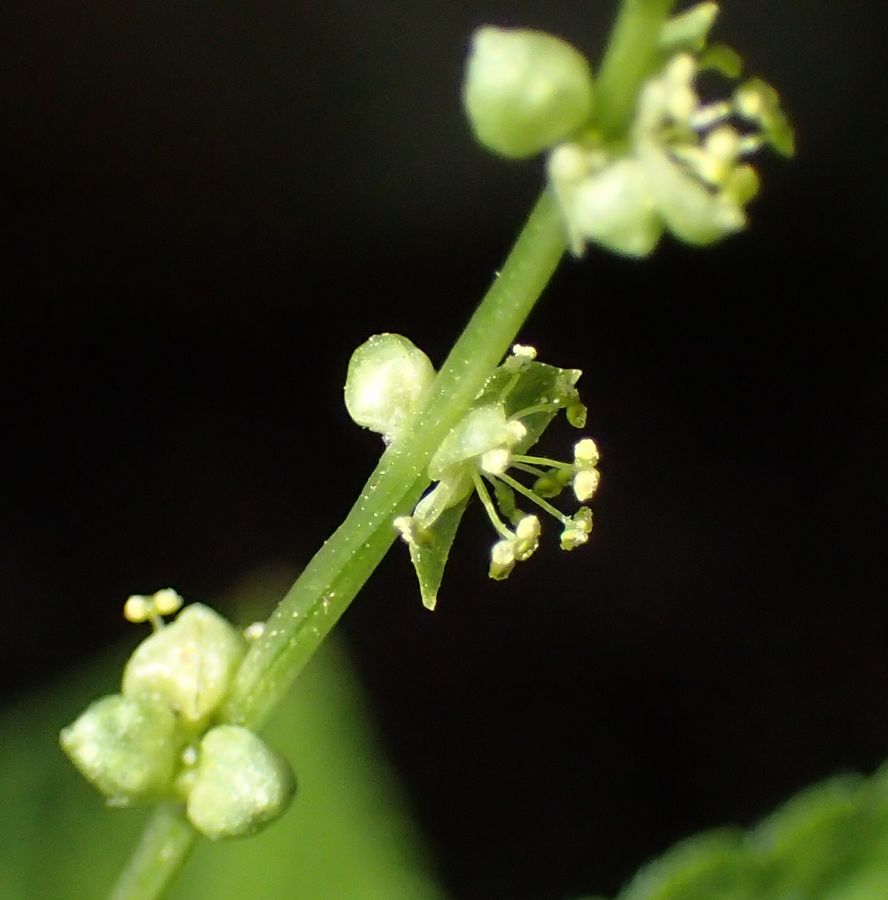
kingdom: Plantae
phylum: Tracheophyta
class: Magnoliopsida
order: Malpighiales
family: Euphorbiaceae
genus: Mercurialis
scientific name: Mercurialis perennis
